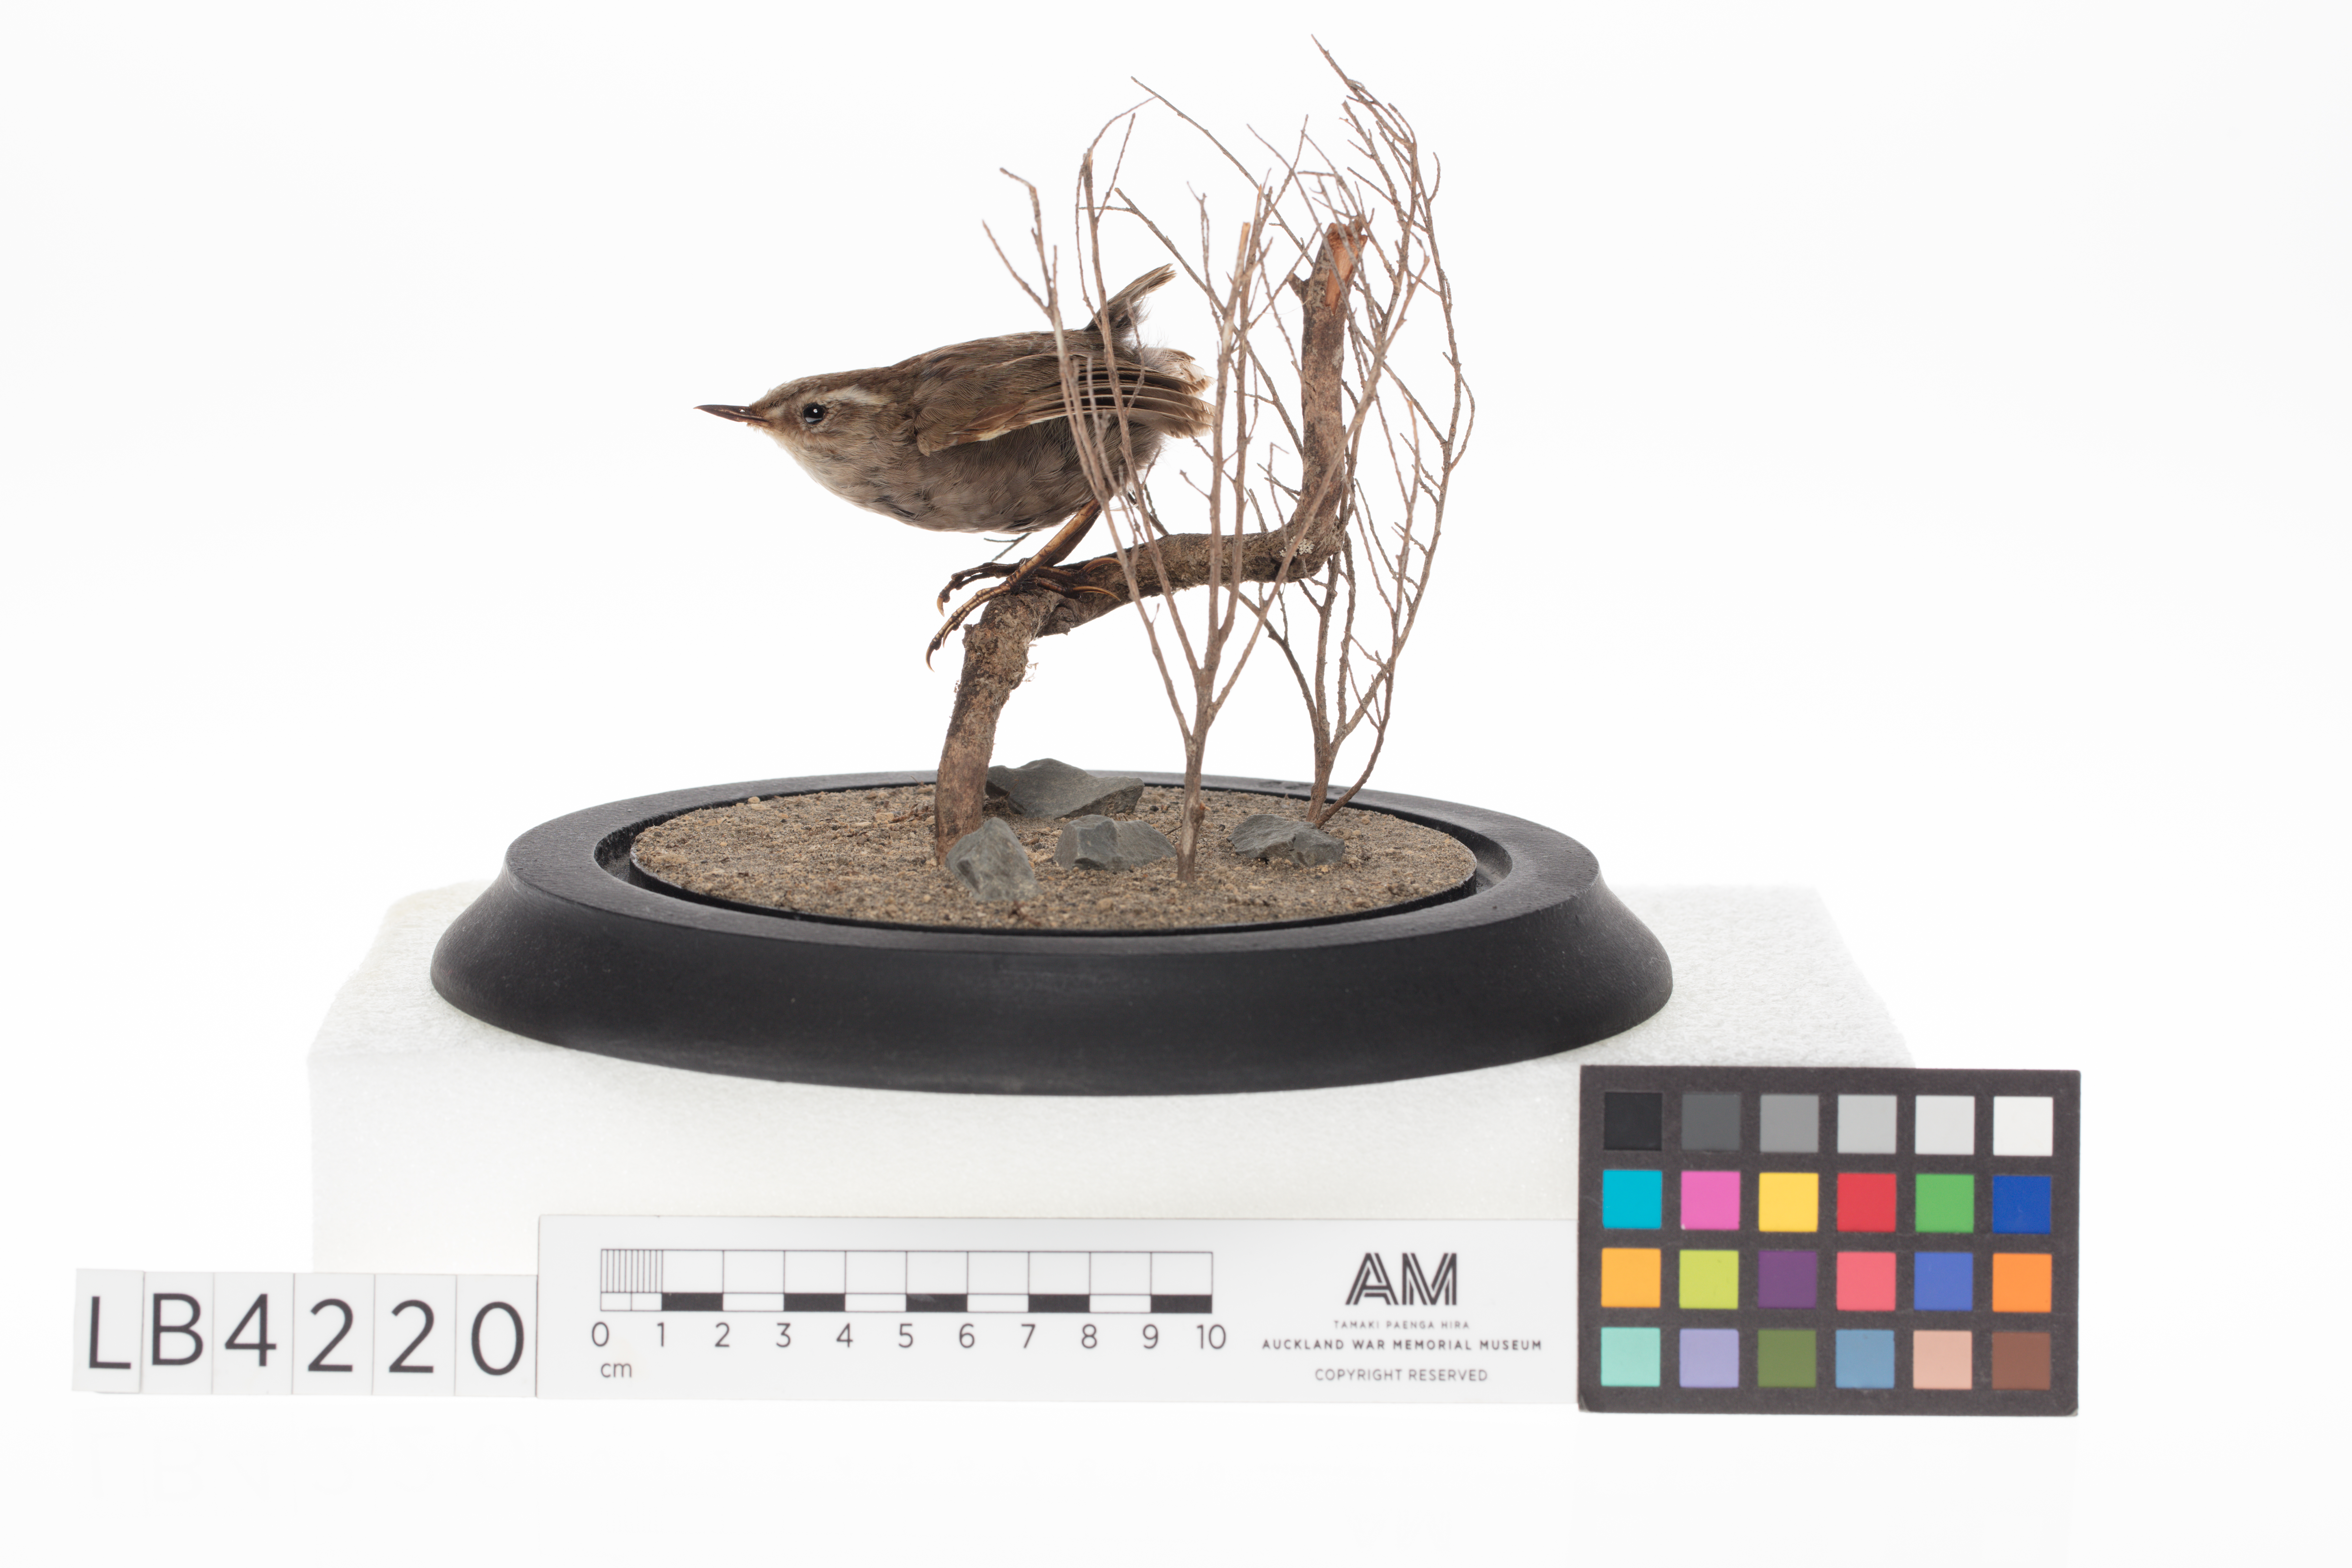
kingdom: Animalia
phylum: Chordata
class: Aves
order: Passeriformes
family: Acanthisittidae
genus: Xenicus
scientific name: Xenicus longipes
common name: Bushwren
